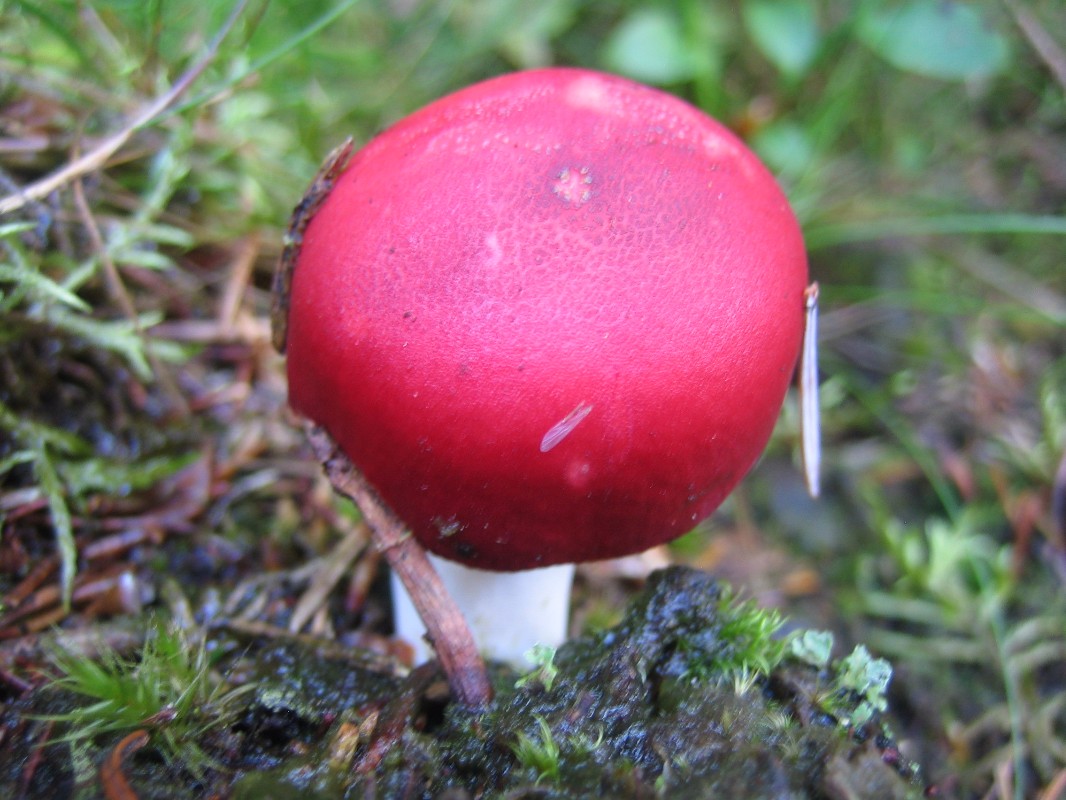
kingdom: Fungi
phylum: Basidiomycota
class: Agaricomycetes
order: Russulales
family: Russulaceae
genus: Russula
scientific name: Russula emetica
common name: stor gift-skørhat
